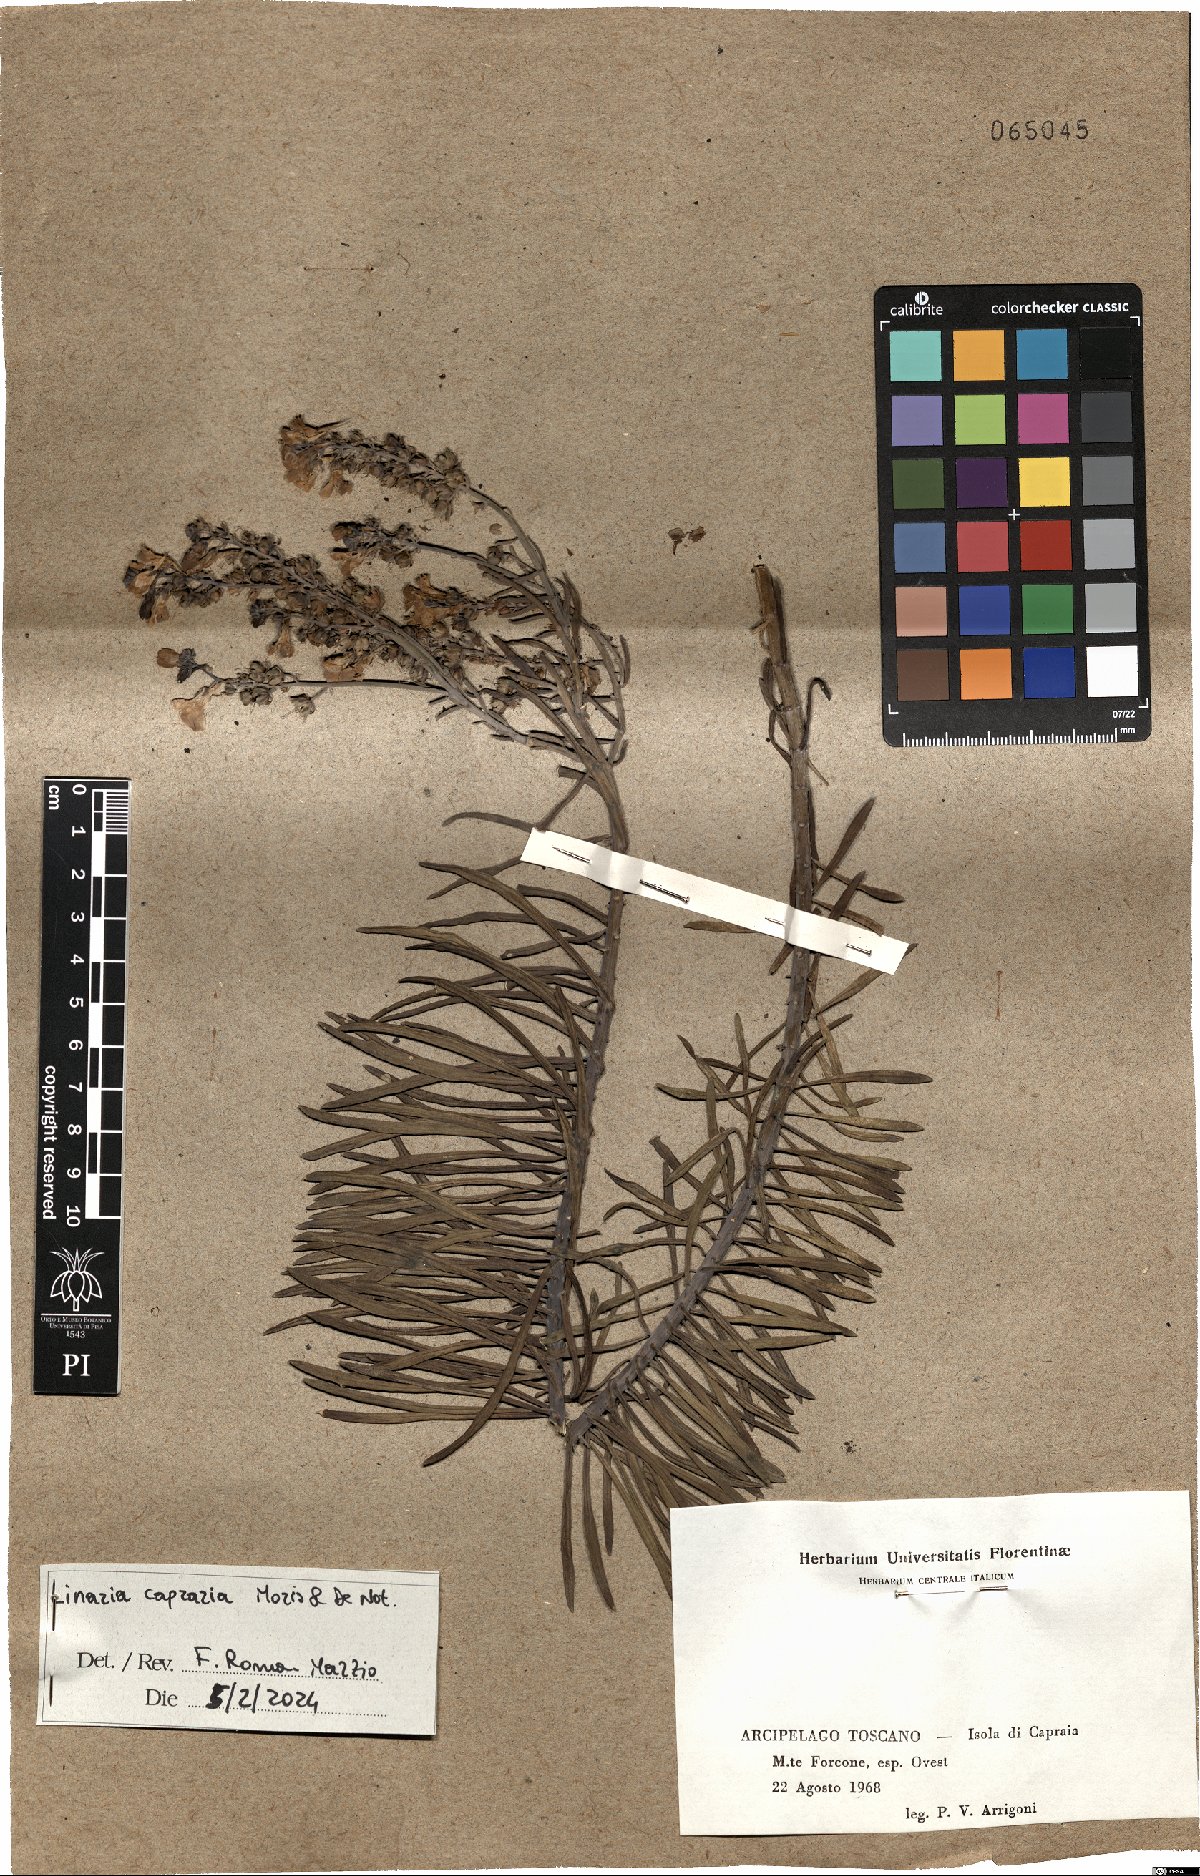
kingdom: Plantae
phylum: Tracheophyta
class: Magnoliopsida
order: Lamiales
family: Plantaginaceae
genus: Linaria
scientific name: Linaria capraria
